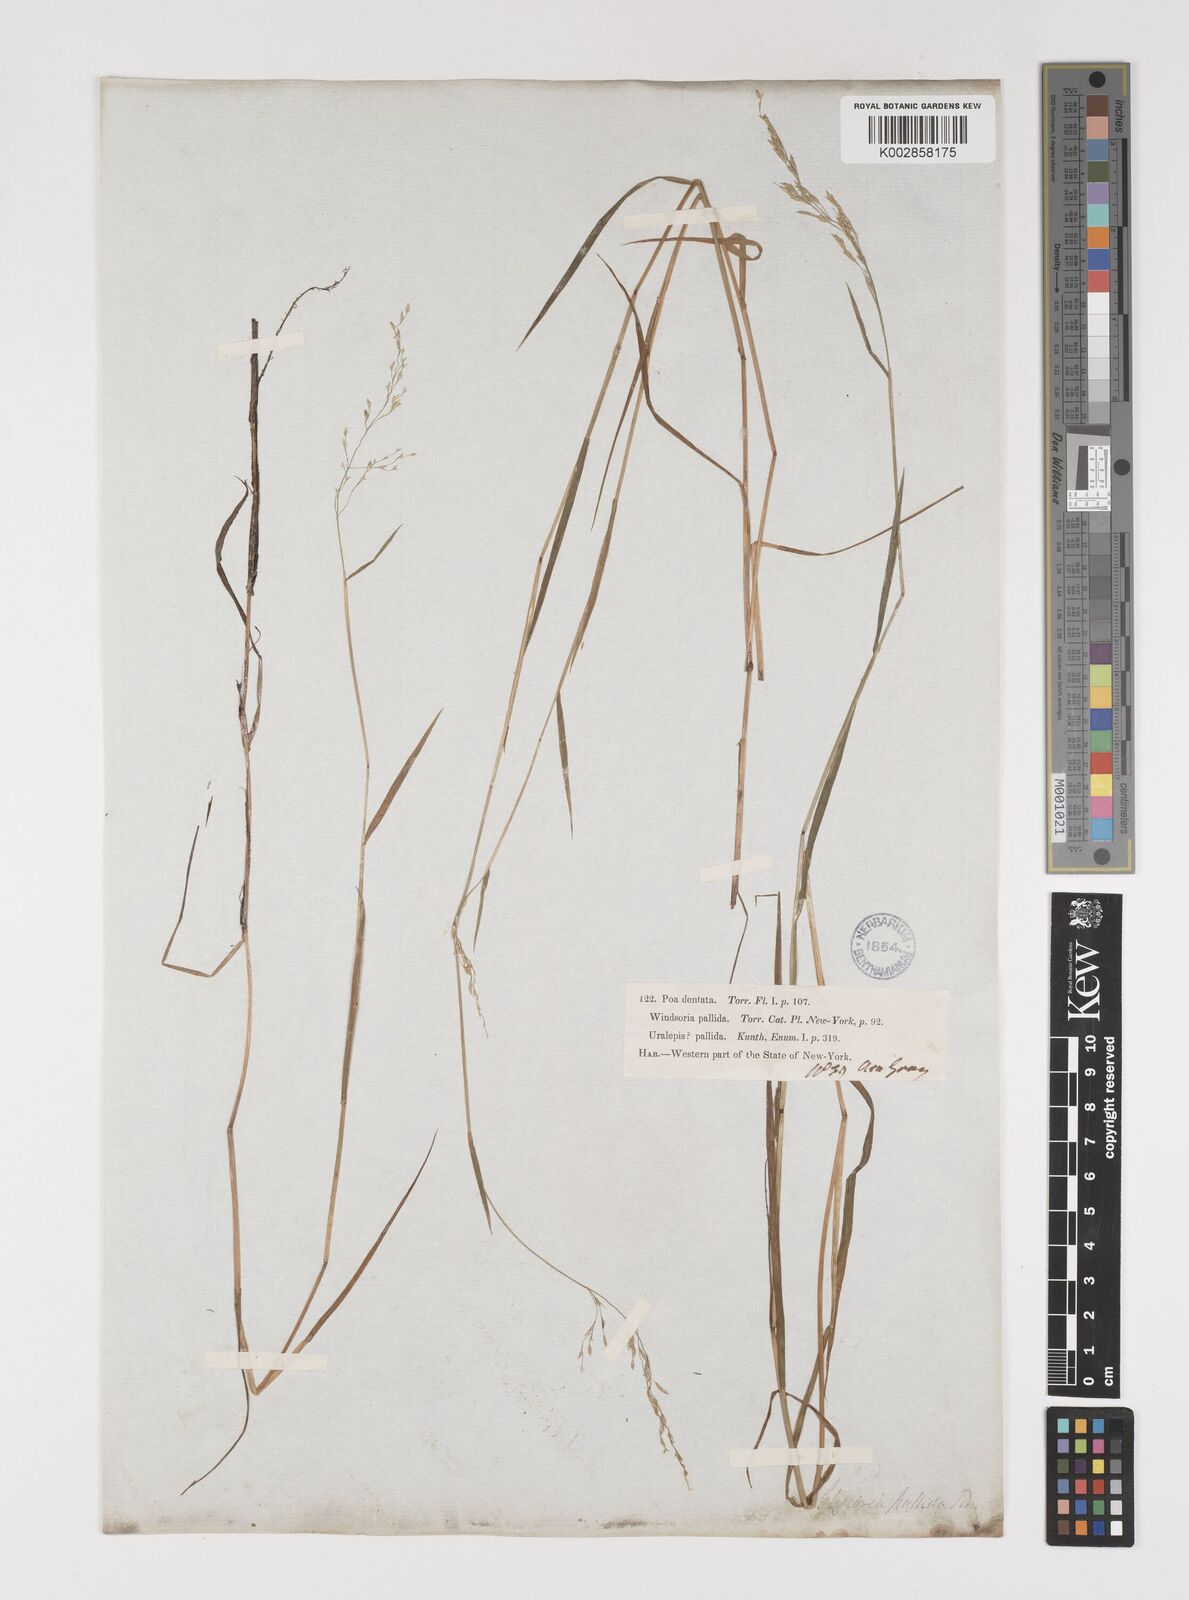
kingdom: Plantae
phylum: Tracheophyta
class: Liliopsida
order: Poales
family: Poaceae
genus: Torreyochloa
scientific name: Torreyochloa pallida
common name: Pale false mannagrass
